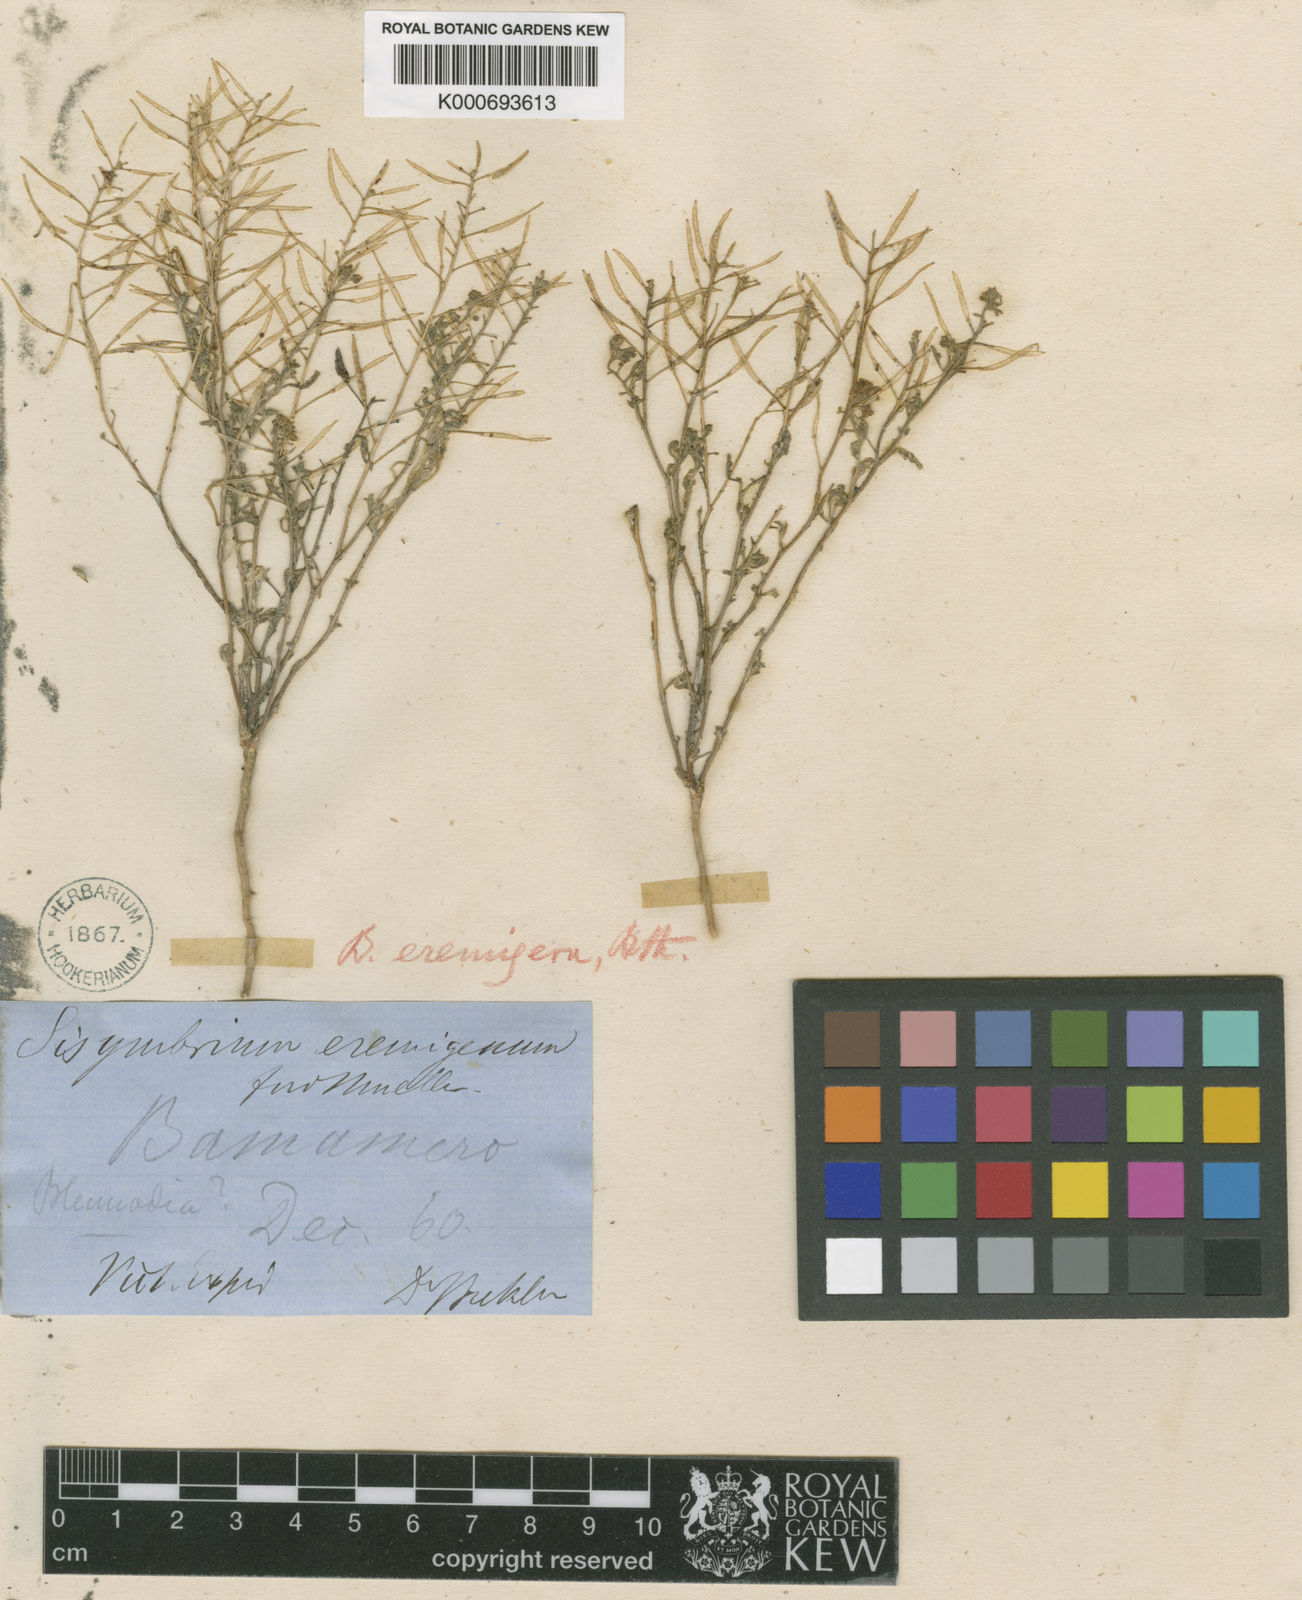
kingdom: Plantae
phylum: Tracheophyta
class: Magnoliopsida
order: Brassicales
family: Brassicaceae
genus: Arabidella
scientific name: Arabidella eremigena
